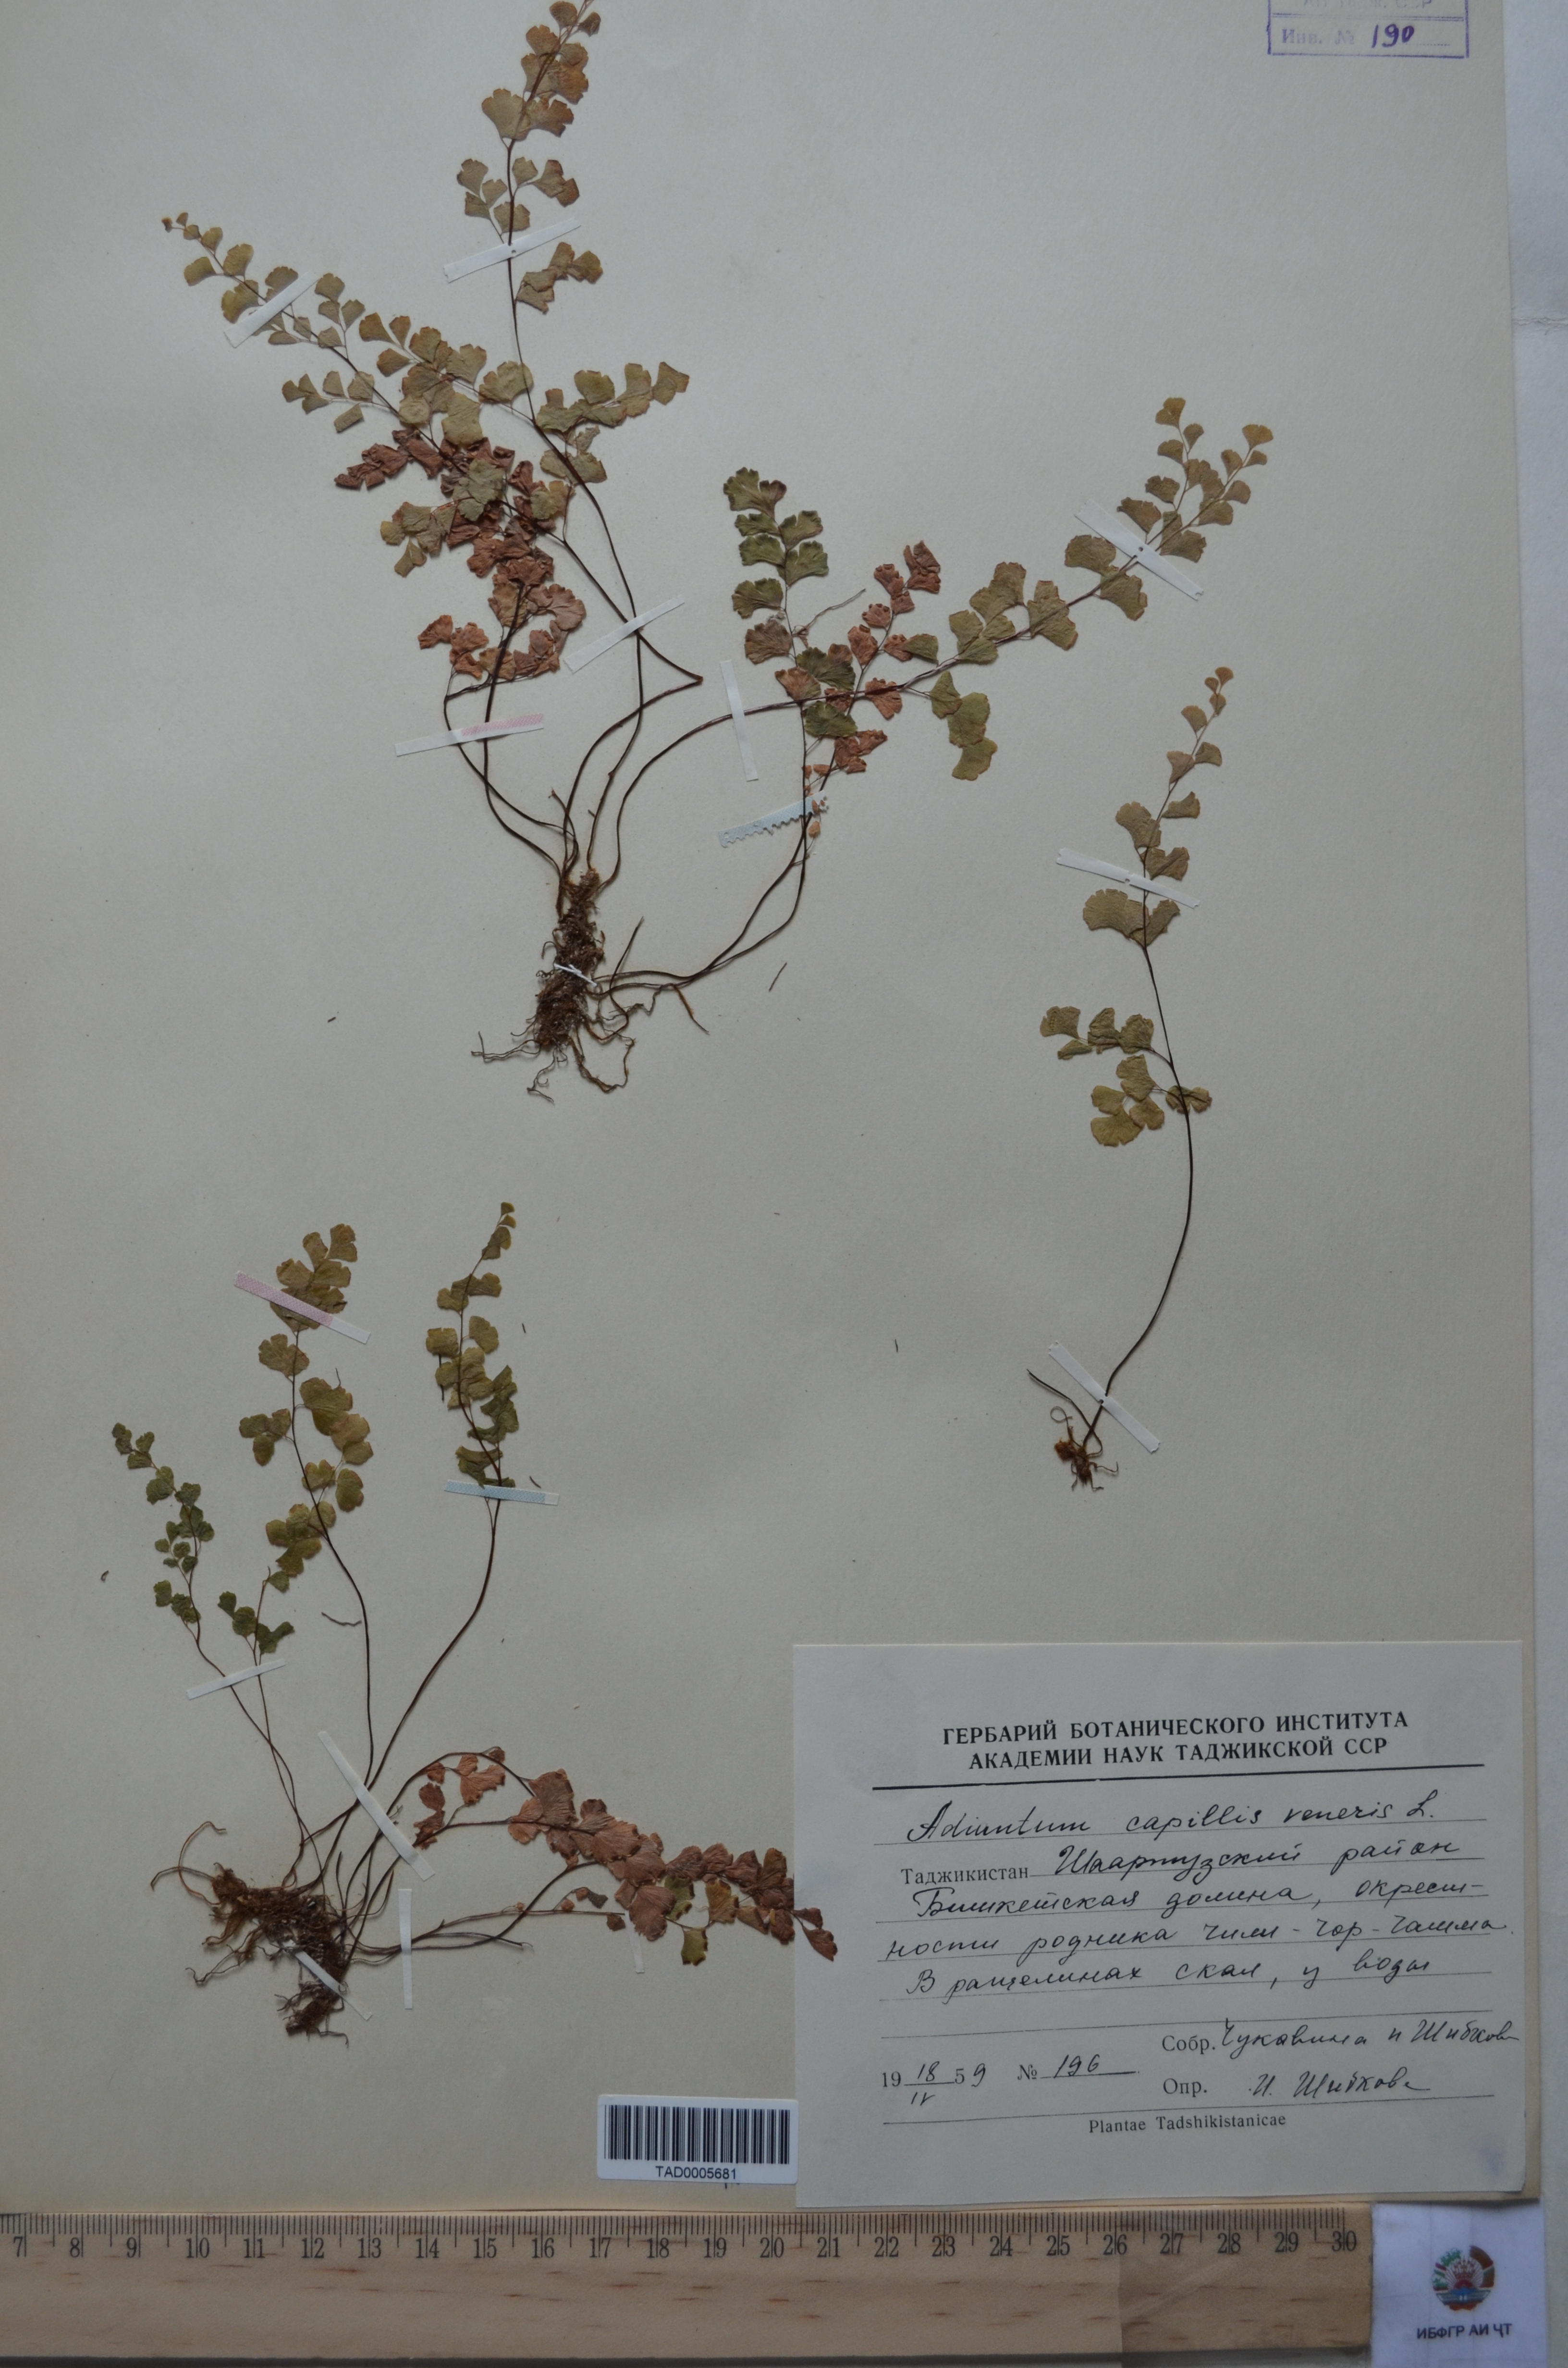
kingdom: Plantae
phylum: Tracheophyta
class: Polypodiopsida
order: Polypodiales
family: Pteridaceae
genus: Adiantum
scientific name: Adiantum capillus-veneris
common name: Maidenhair fern
